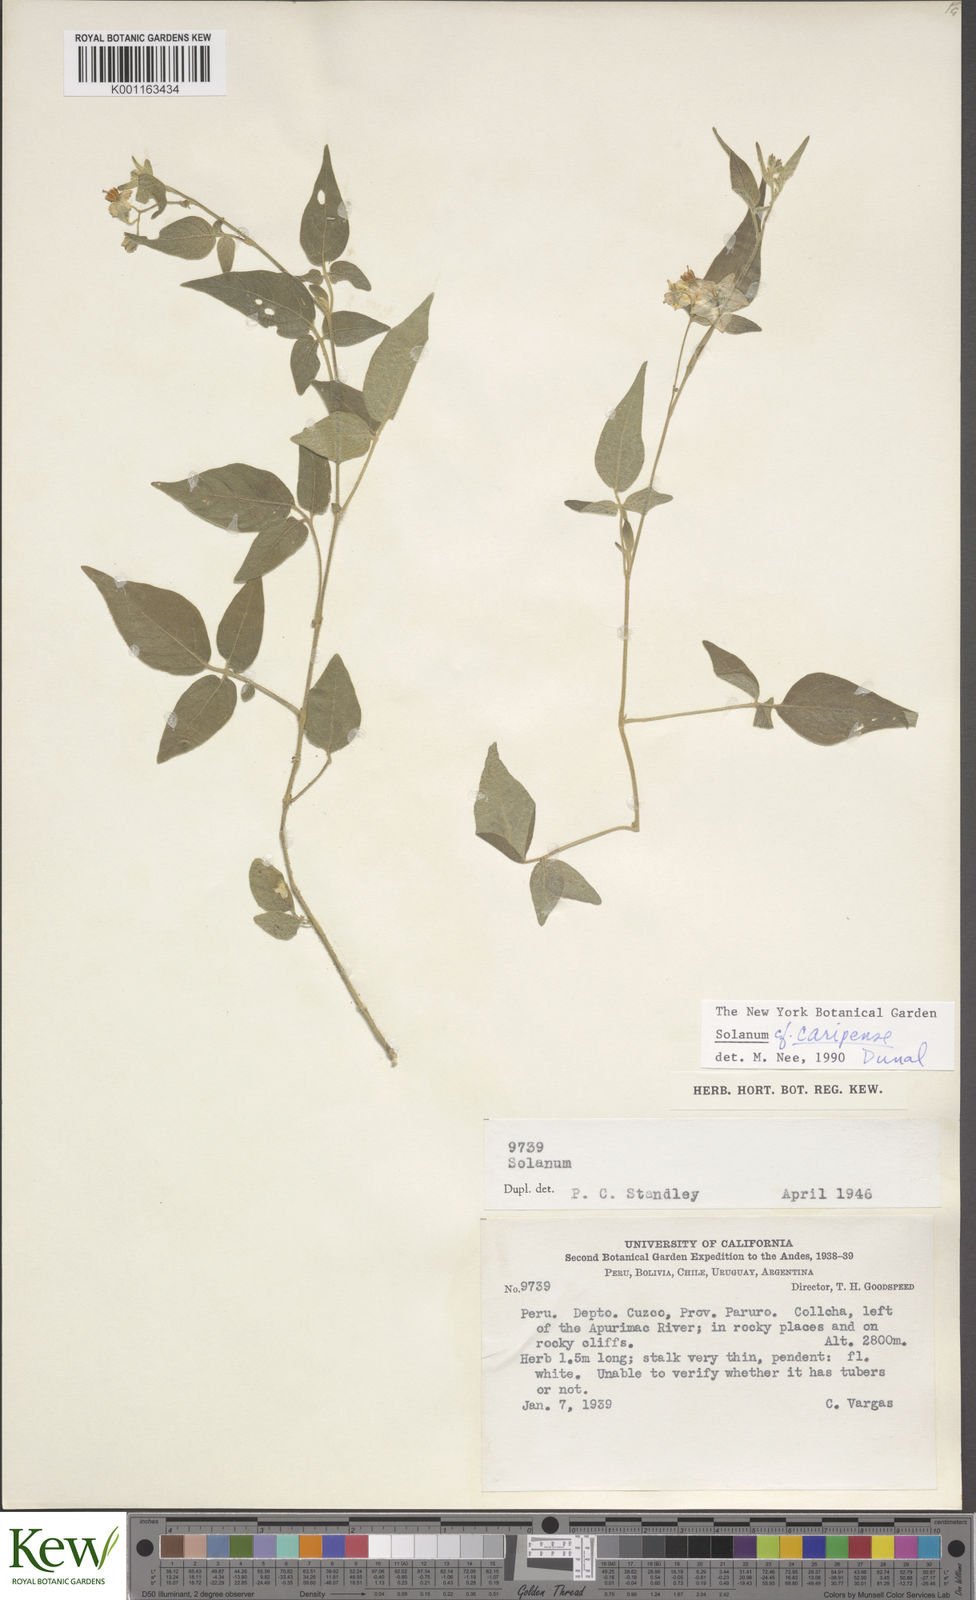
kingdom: Plantae
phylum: Tracheophyta
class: Magnoliopsida
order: Solanales
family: Solanaceae
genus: Solanum
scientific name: Solanum caripense
